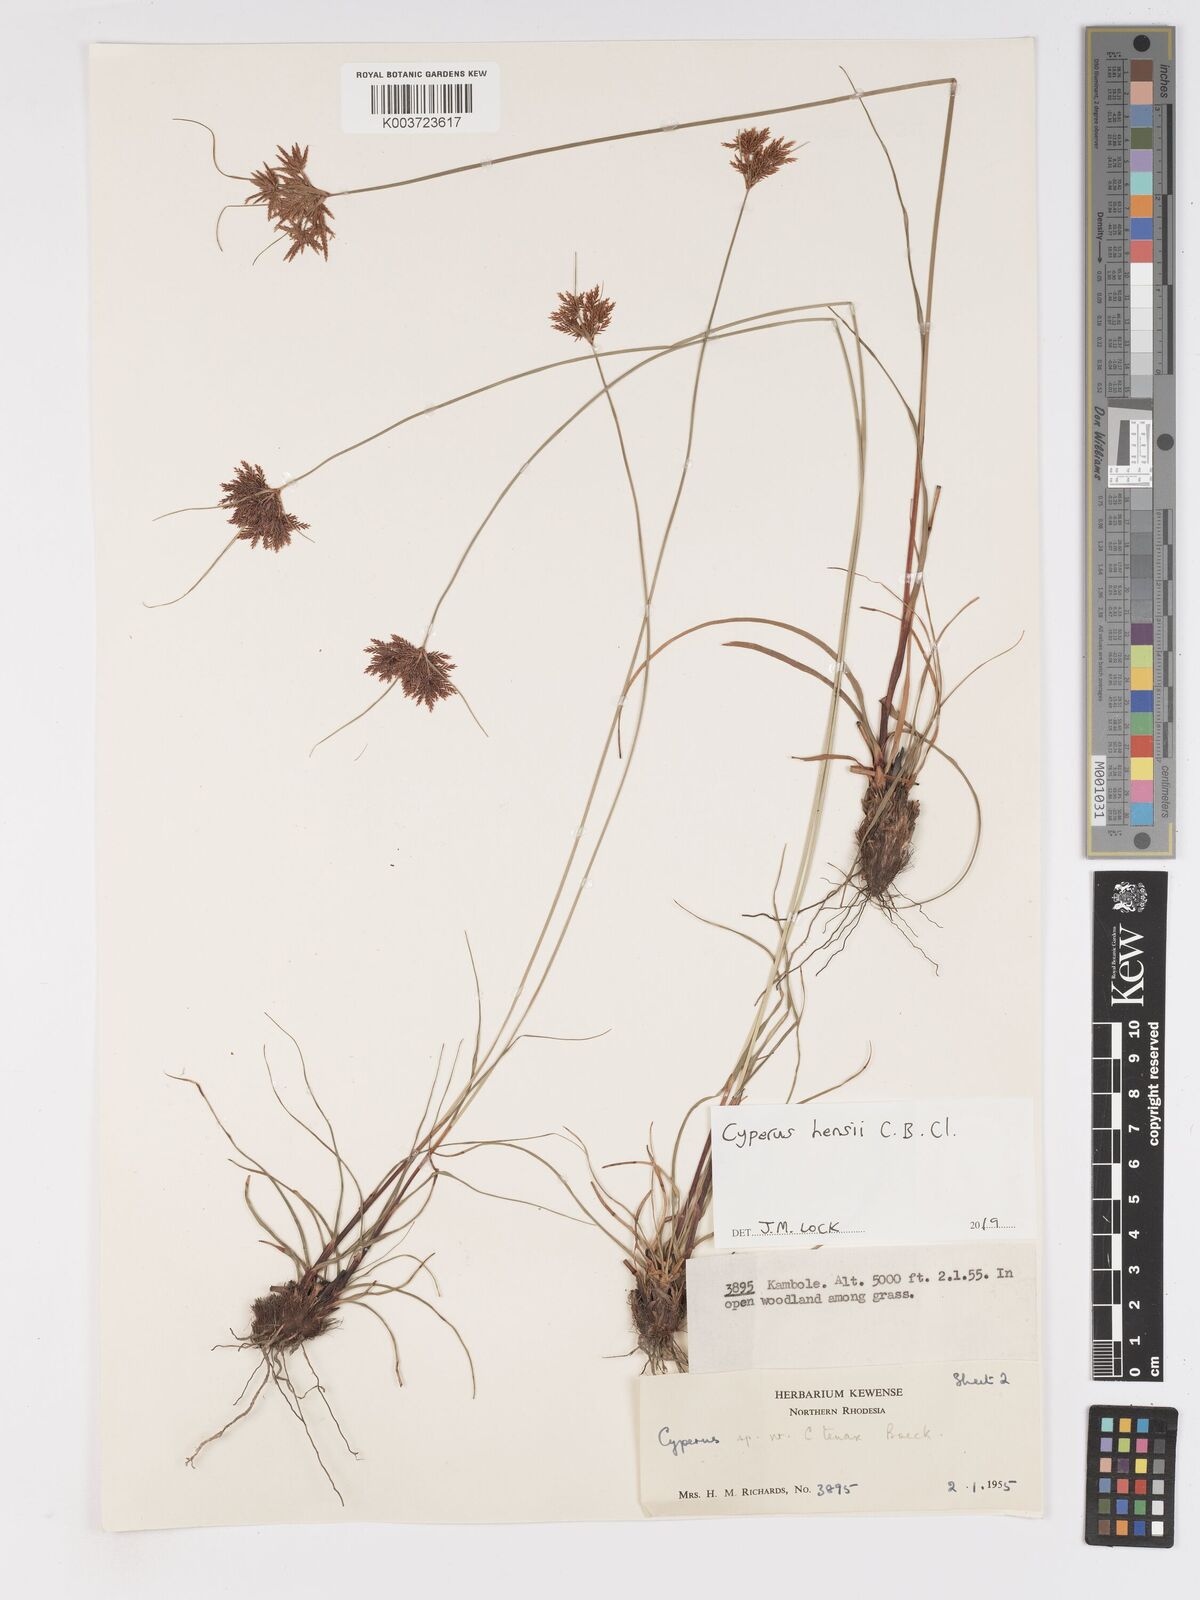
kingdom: Plantae
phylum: Tracheophyta
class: Liliopsida
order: Poales
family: Cyperaceae
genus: Cyperus
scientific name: Cyperus hensii
